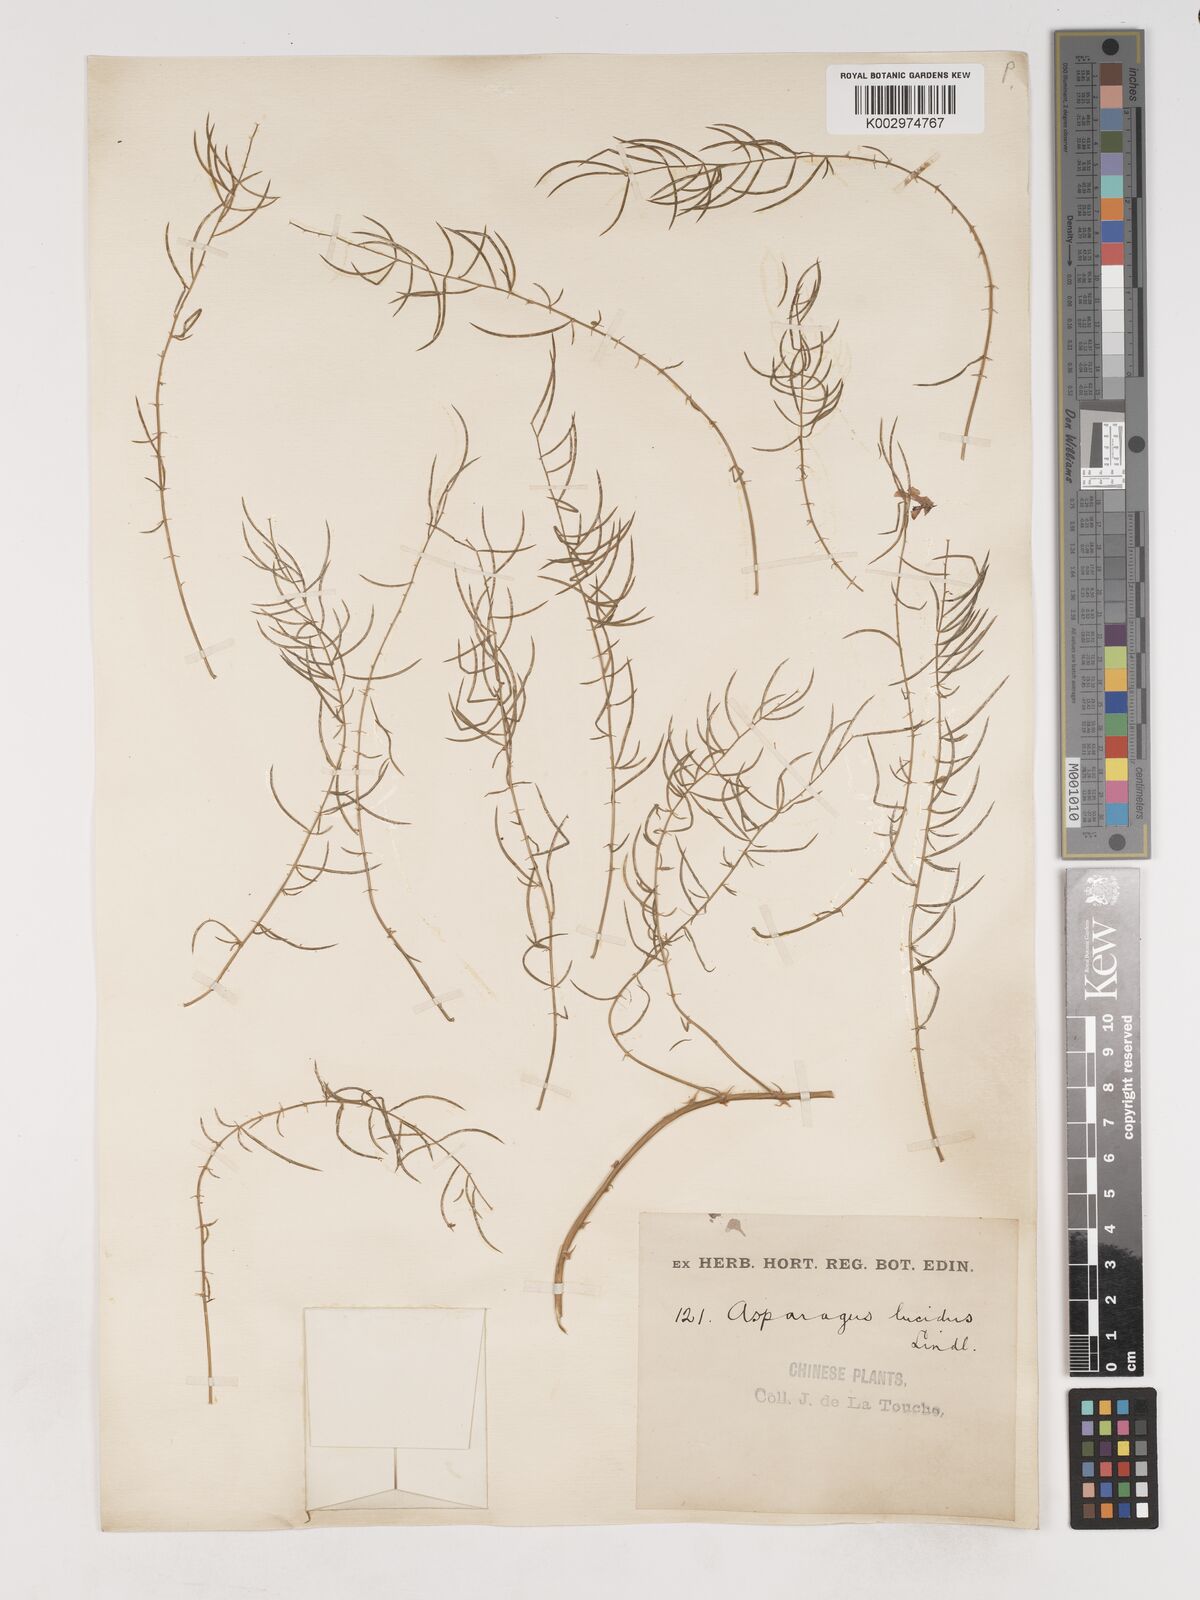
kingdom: Plantae
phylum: Tracheophyta
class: Liliopsida
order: Asparagales
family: Asparagaceae
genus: Asparagus
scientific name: Asparagus cochinchinensis
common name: Chinese asparagus
